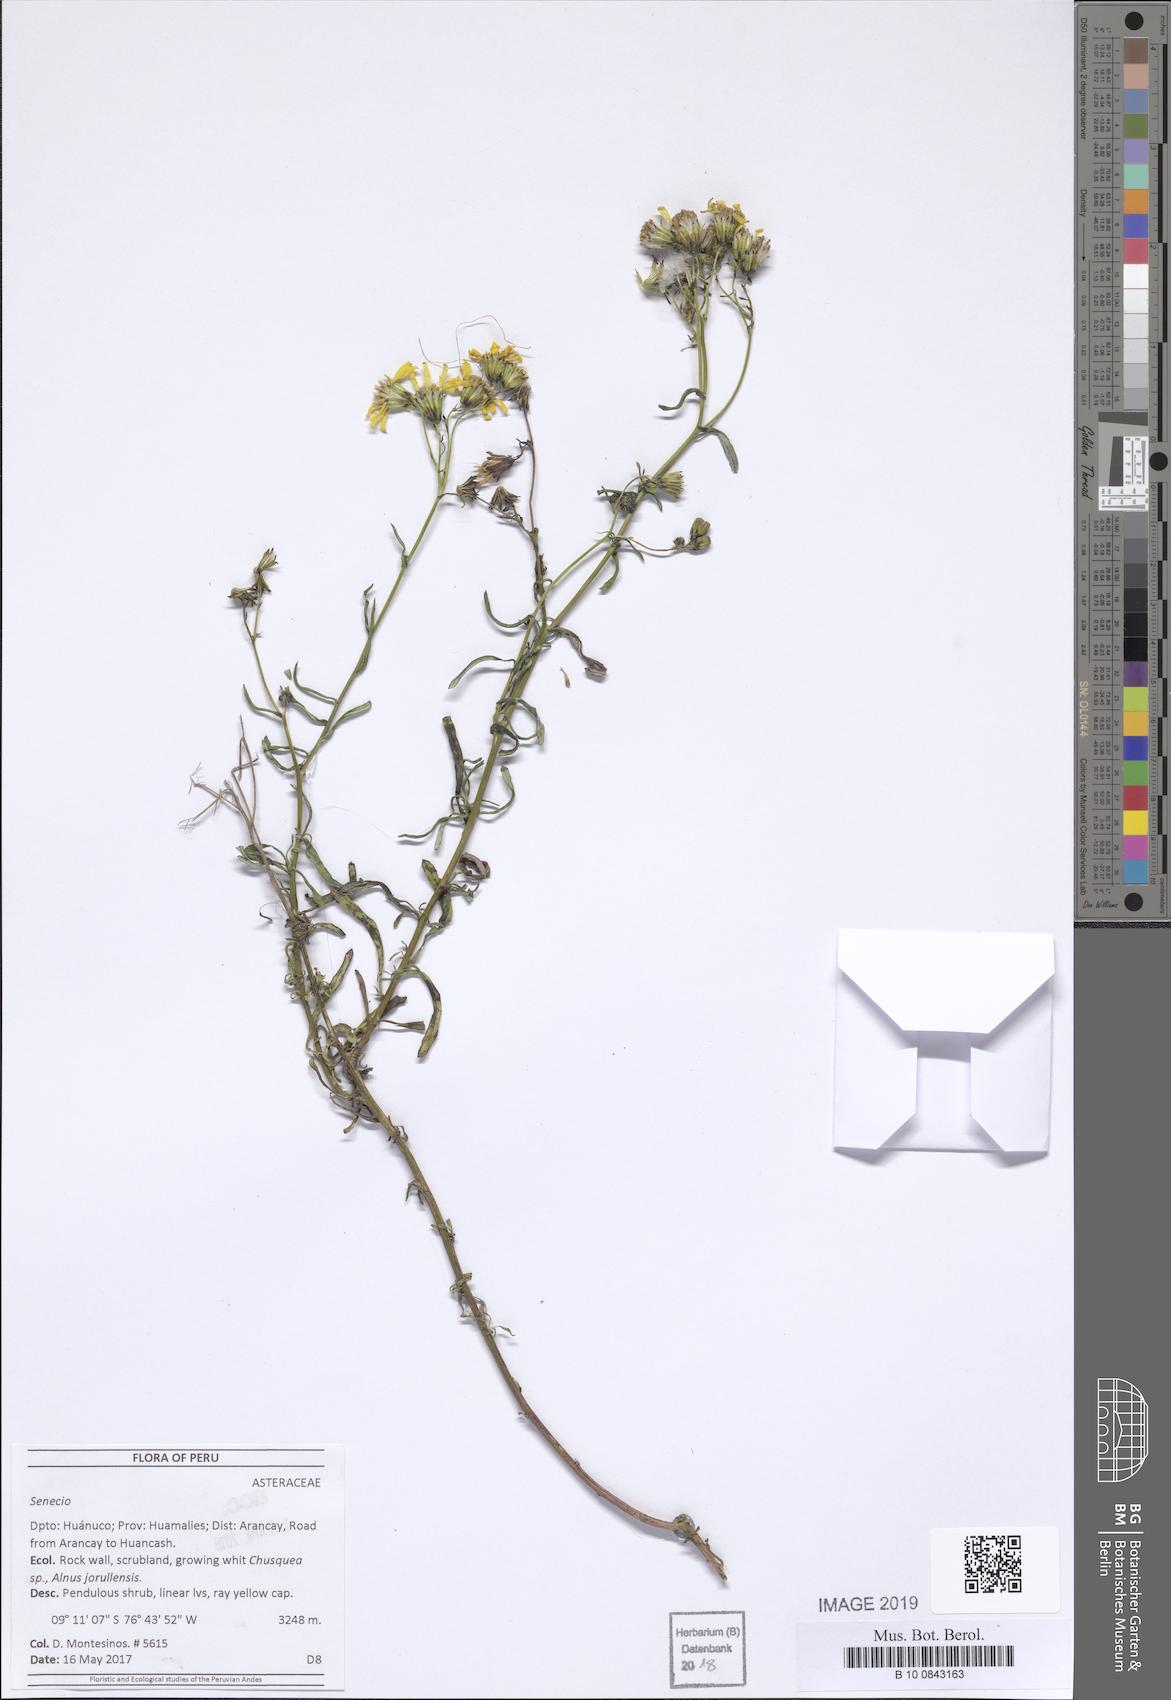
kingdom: Plantae
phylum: Tracheophyta
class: Magnoliopsida
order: Asterales
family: Asteraceae
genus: Senecio
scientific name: Senecio
